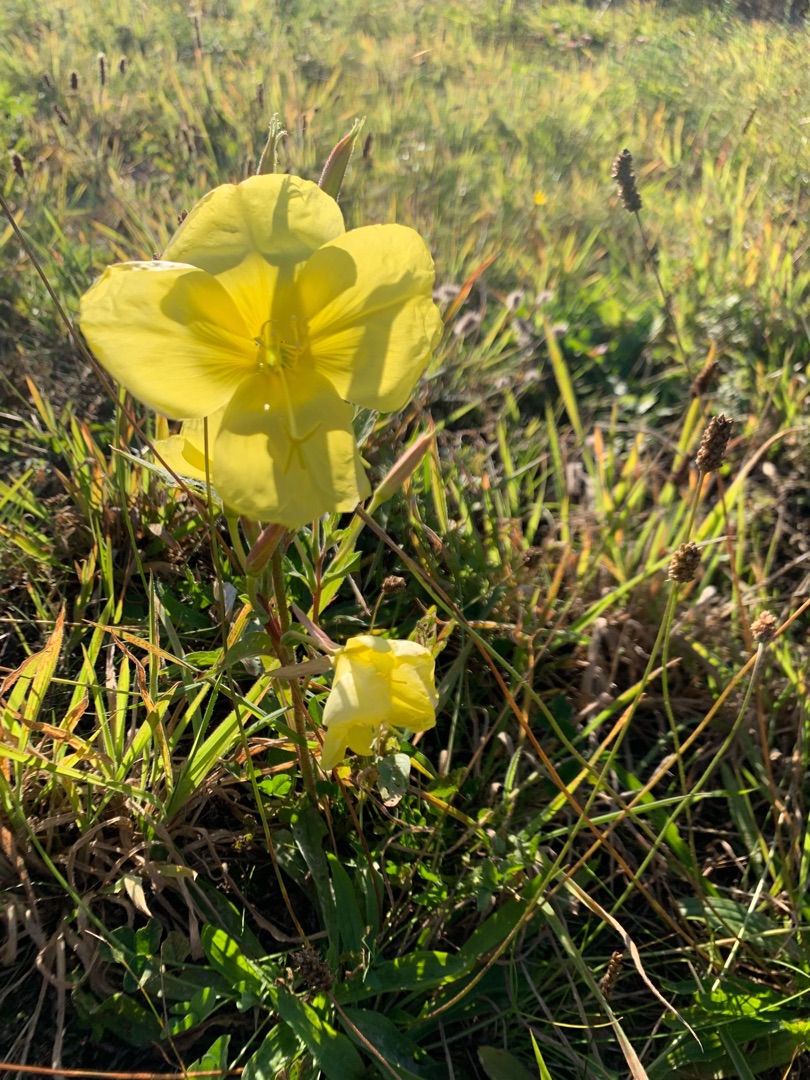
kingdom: Plantae
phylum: Tracheophyta
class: Magnoliopsida
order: Myrtales
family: Onagraceae
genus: Oenothera
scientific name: Oenothera glazioviana
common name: Kæmpe-natlys
